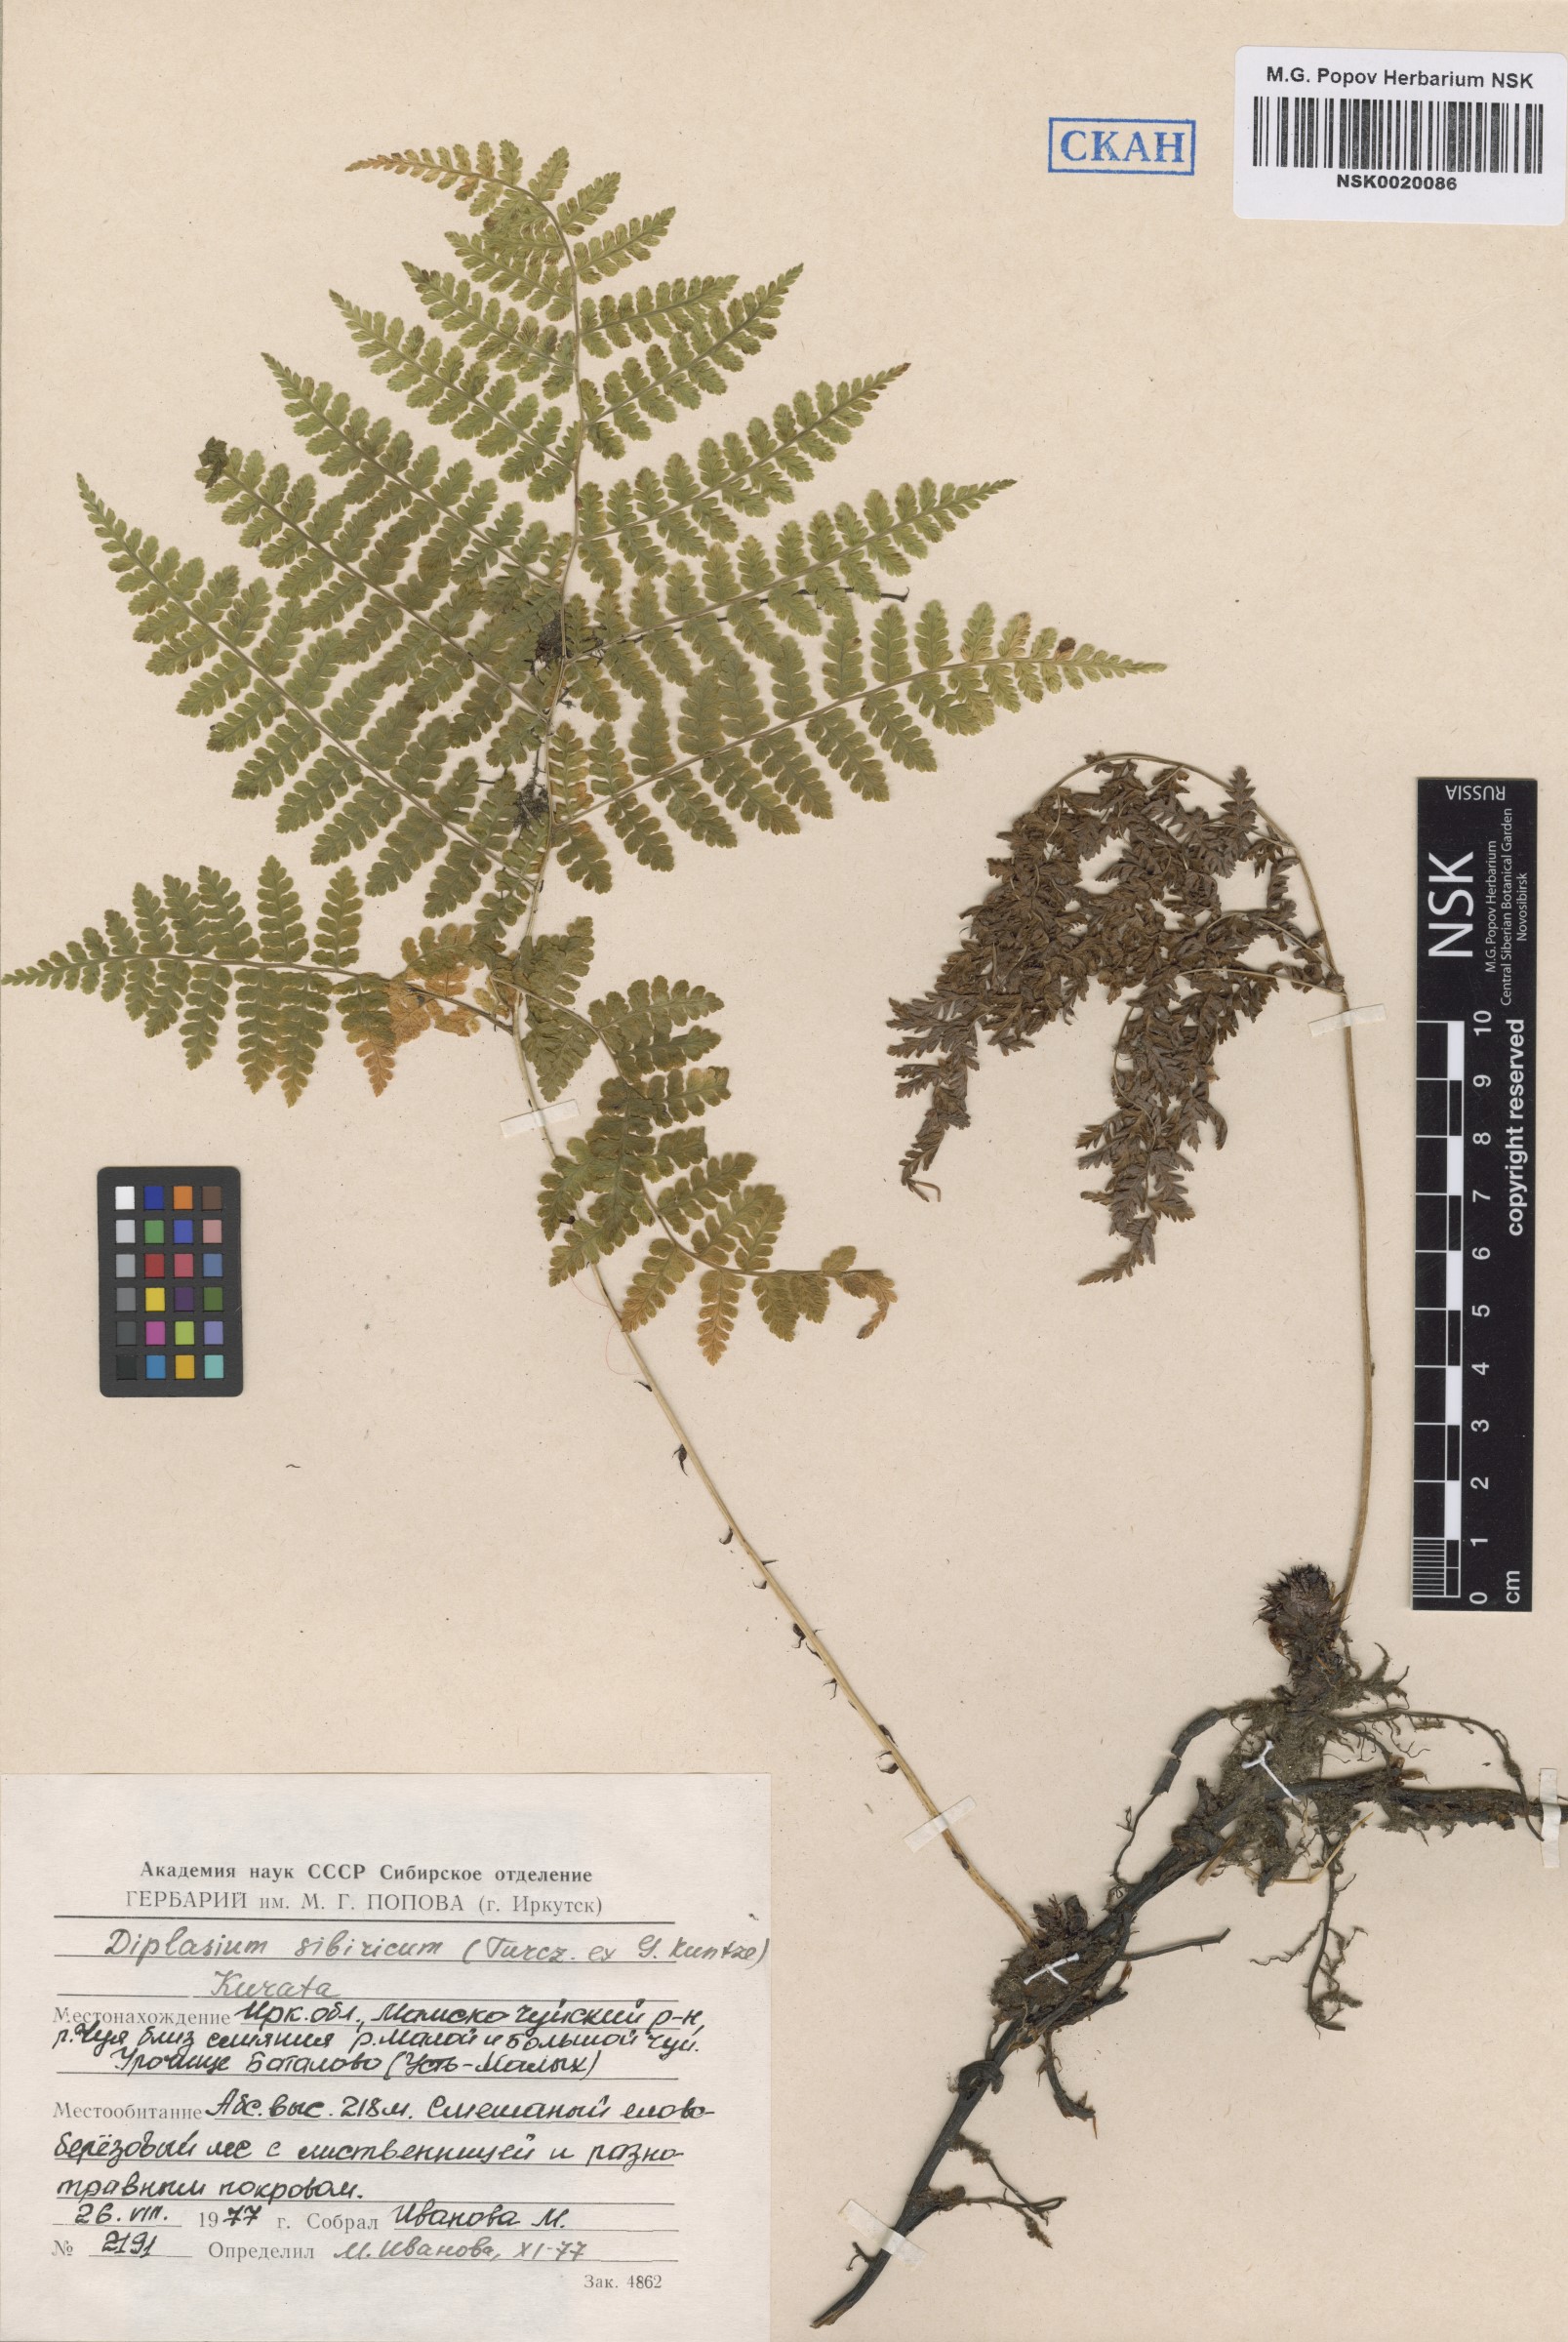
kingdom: Plantae
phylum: Tracheophyta
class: Polypodiopsida
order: Polypodiales
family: Athyriaceae
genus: Diplazium
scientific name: Diplazium sibiricum
